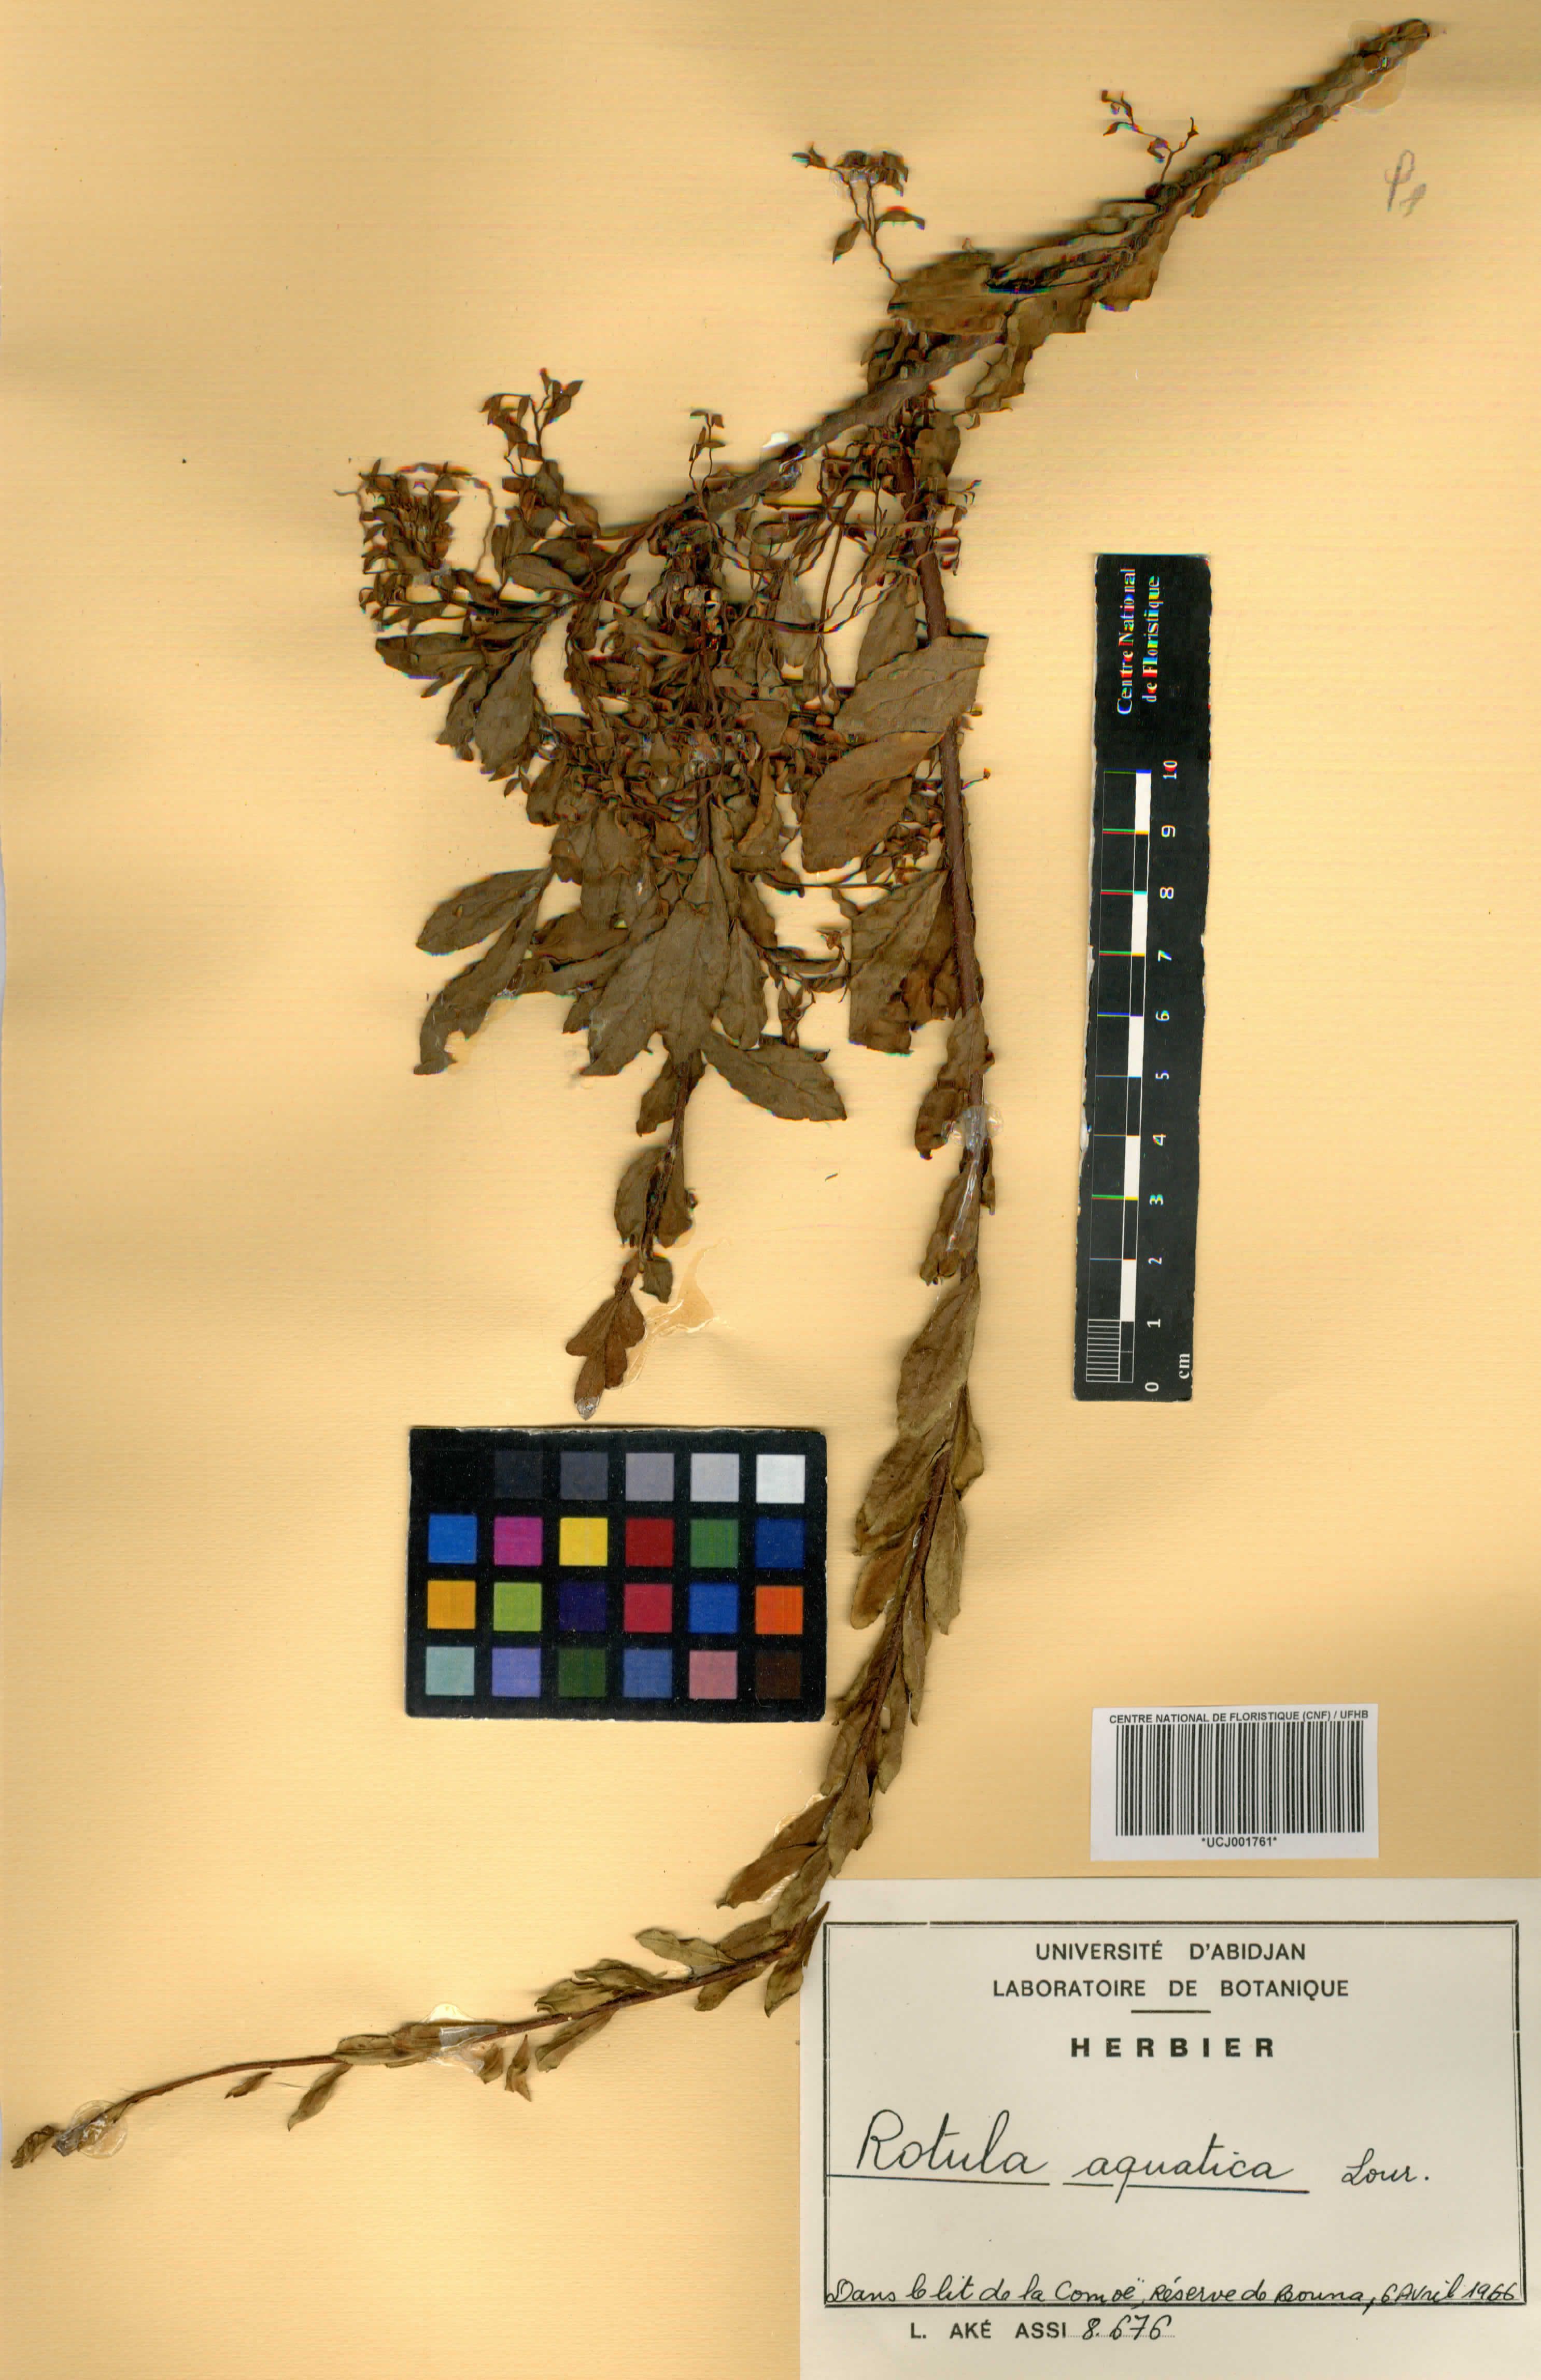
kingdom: Plantae
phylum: Tracheophyta
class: Magnoliopsida
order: Boraginales
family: Ehretiaceae
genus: Ehretia
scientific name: Ehretia aquatica
